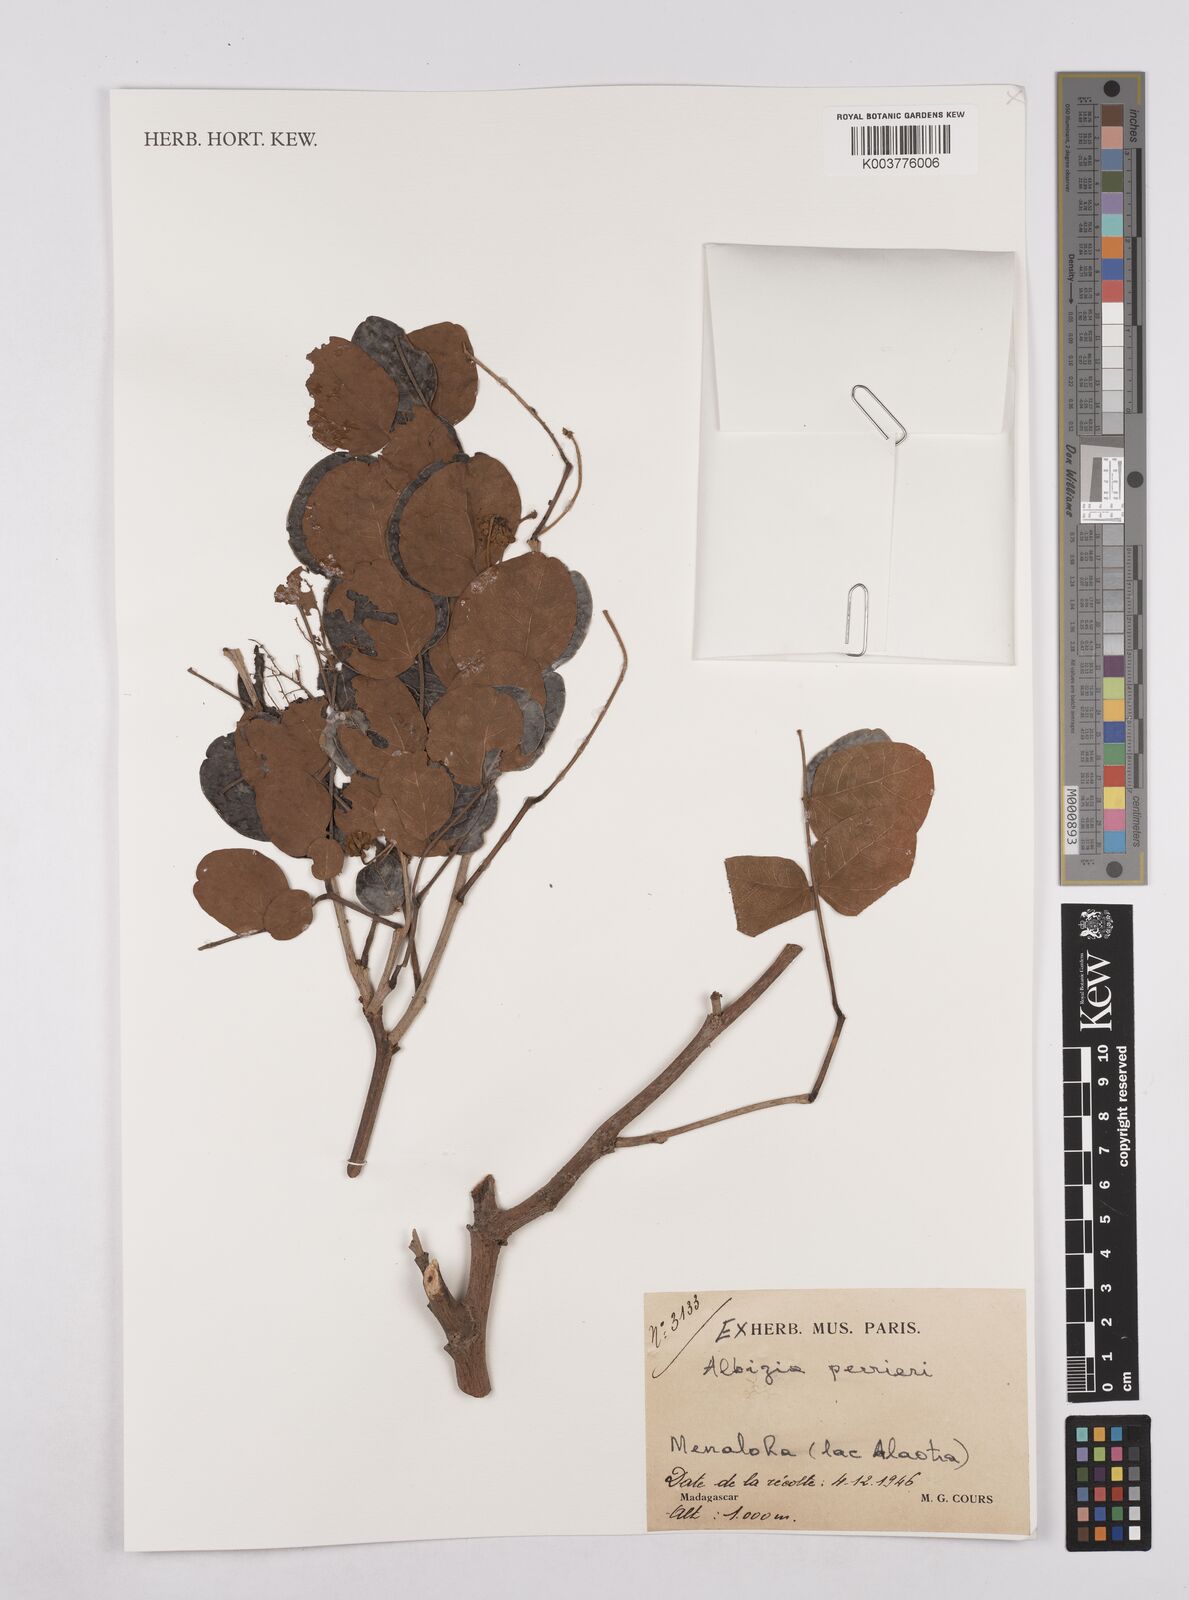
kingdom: Plantae
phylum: Tracheophyta
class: Magnoliopsida
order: Fabales
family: Fabaceae
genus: Albizia
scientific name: Albizia perrieri
